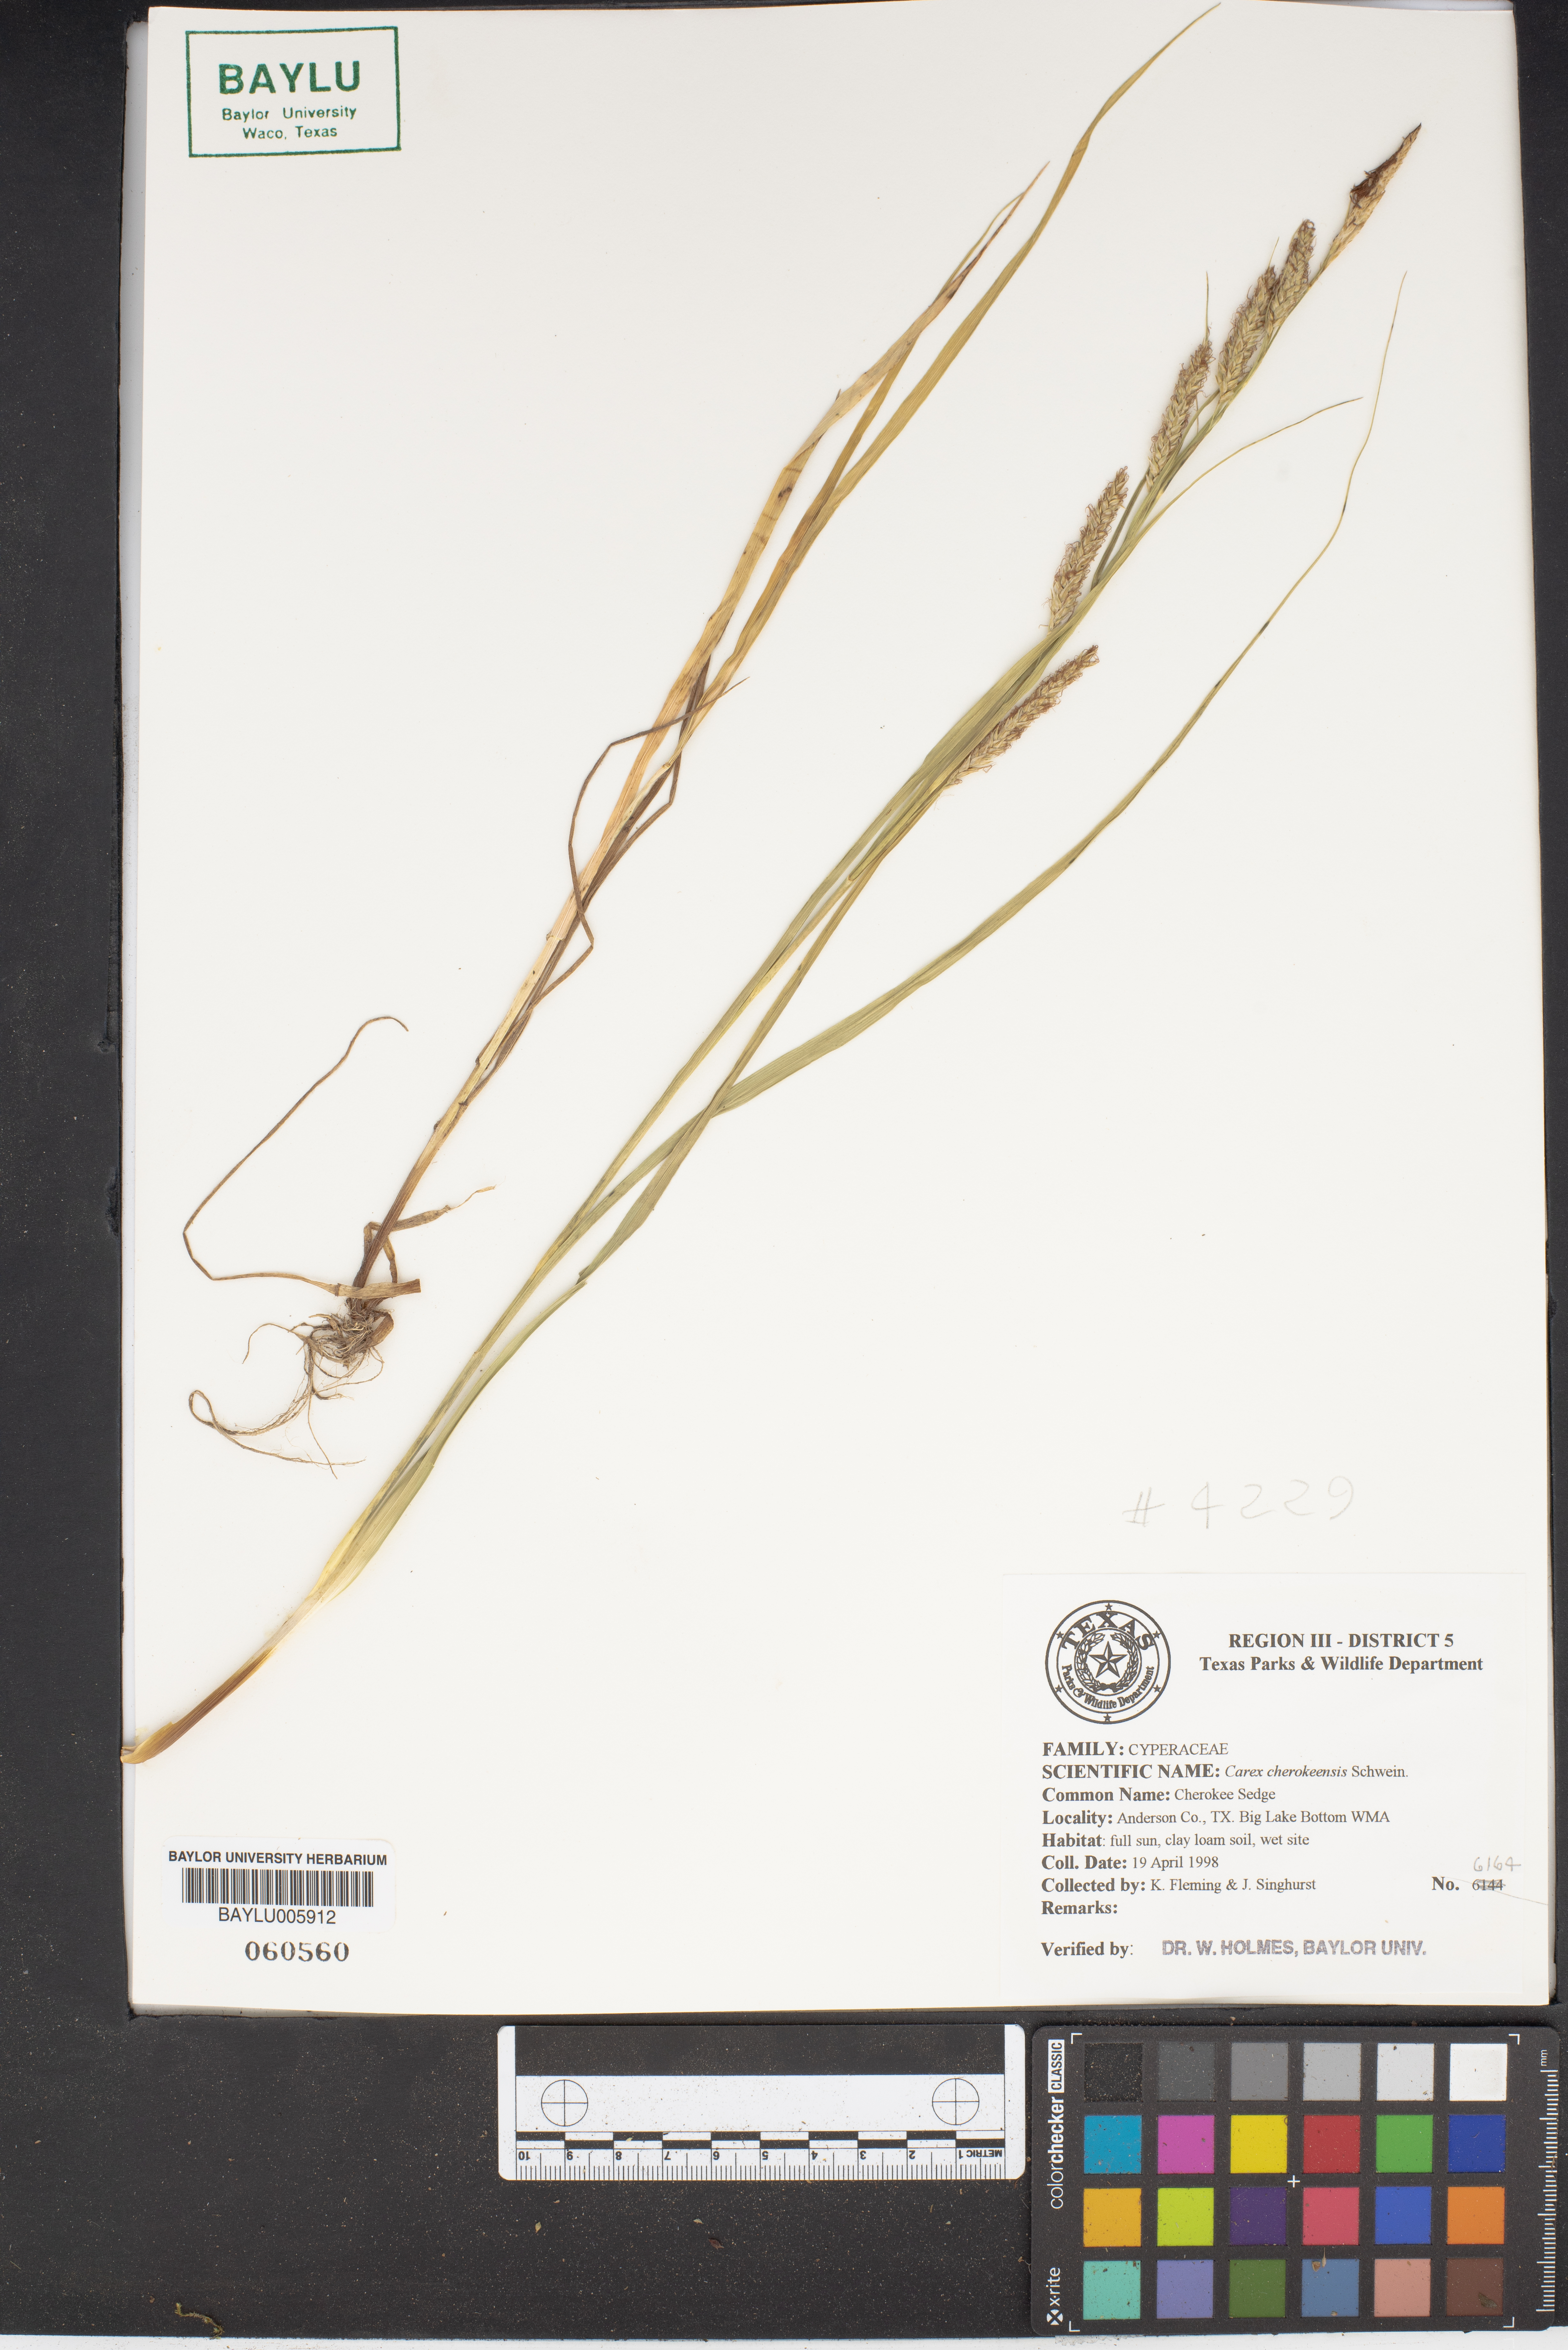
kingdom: Plantae
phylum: Tracheophyta
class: Liliopsida
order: Poales
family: Cyperaceae
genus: Carex
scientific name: Carex cherokeensis
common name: Cherokee sedge
